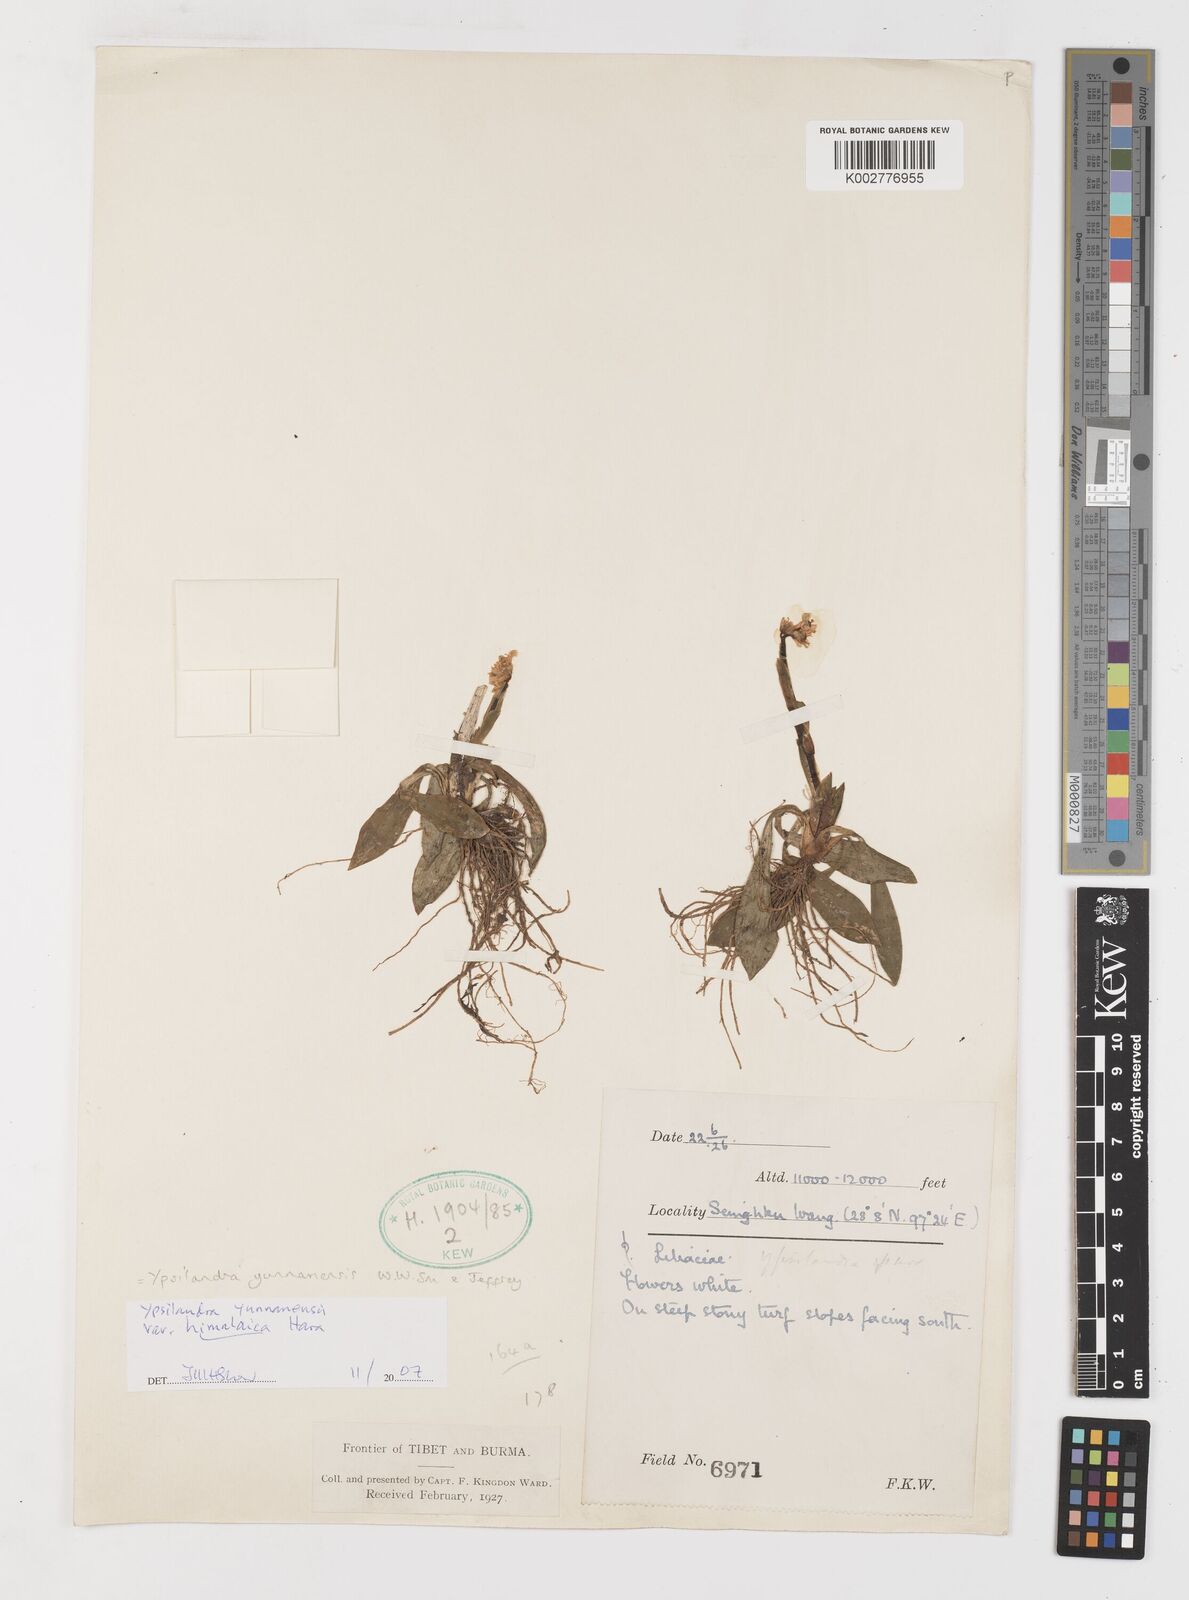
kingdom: Plantae
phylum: Tracheophyta
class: Liliopsida
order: Liliales
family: Melanthiaceae
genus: Helonias
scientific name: Helonias yunnanensis
